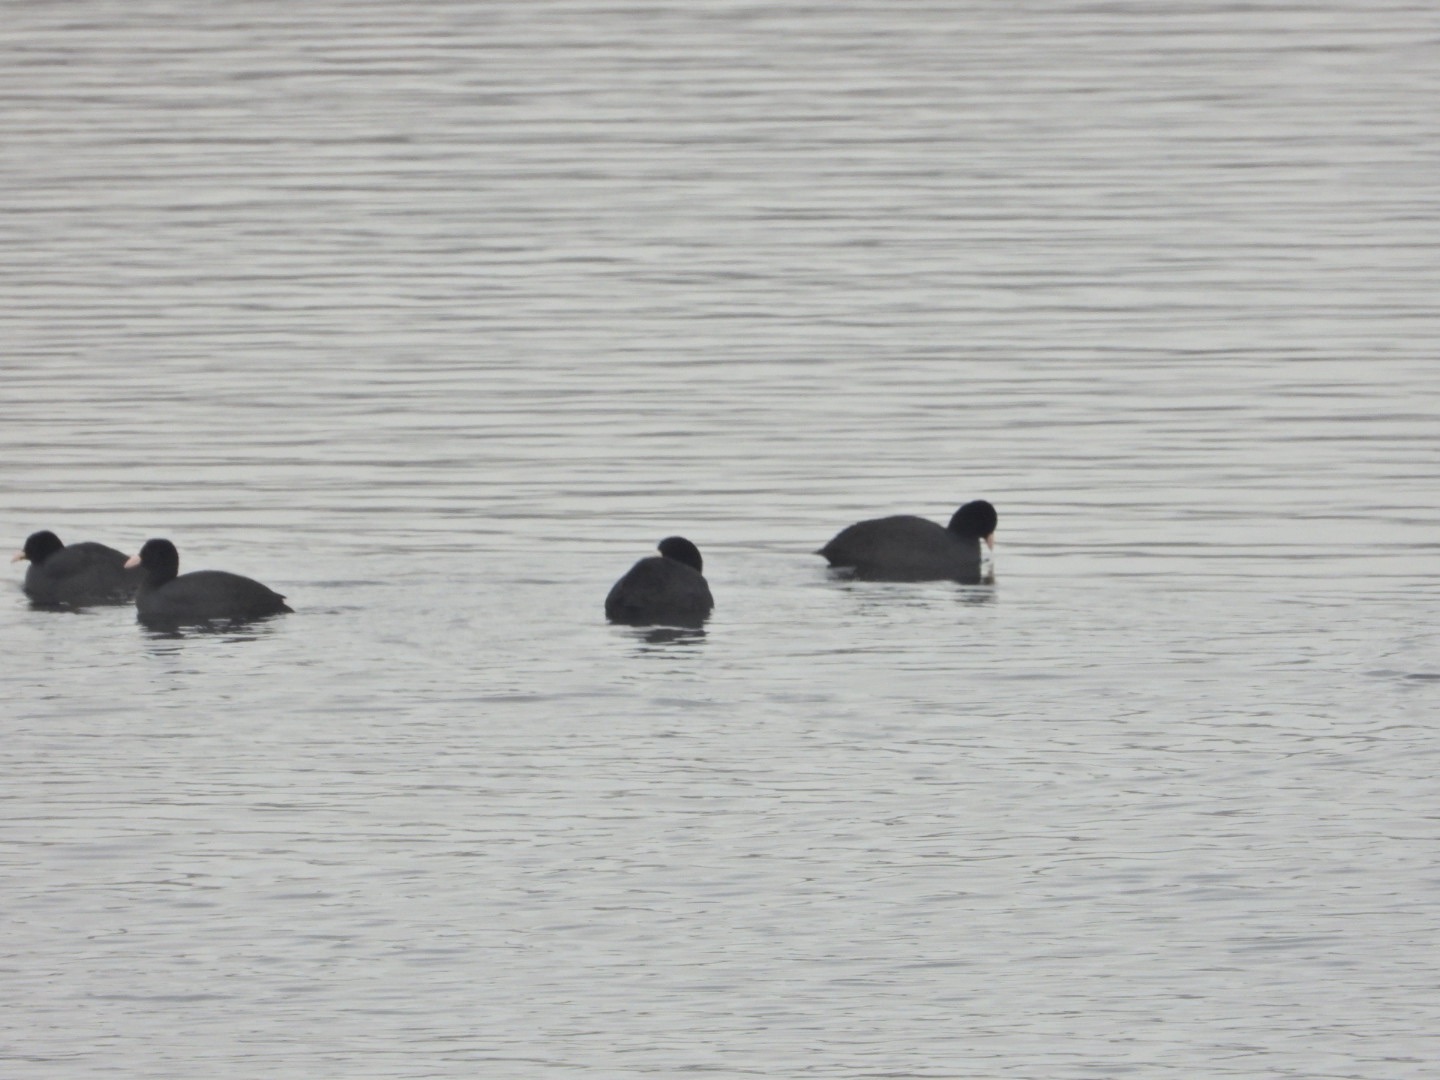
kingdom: Animalia
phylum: Chordata
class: Aves
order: Gruiformes
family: Rallidae
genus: Fulica
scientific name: Fulica atra
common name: Blishøne
